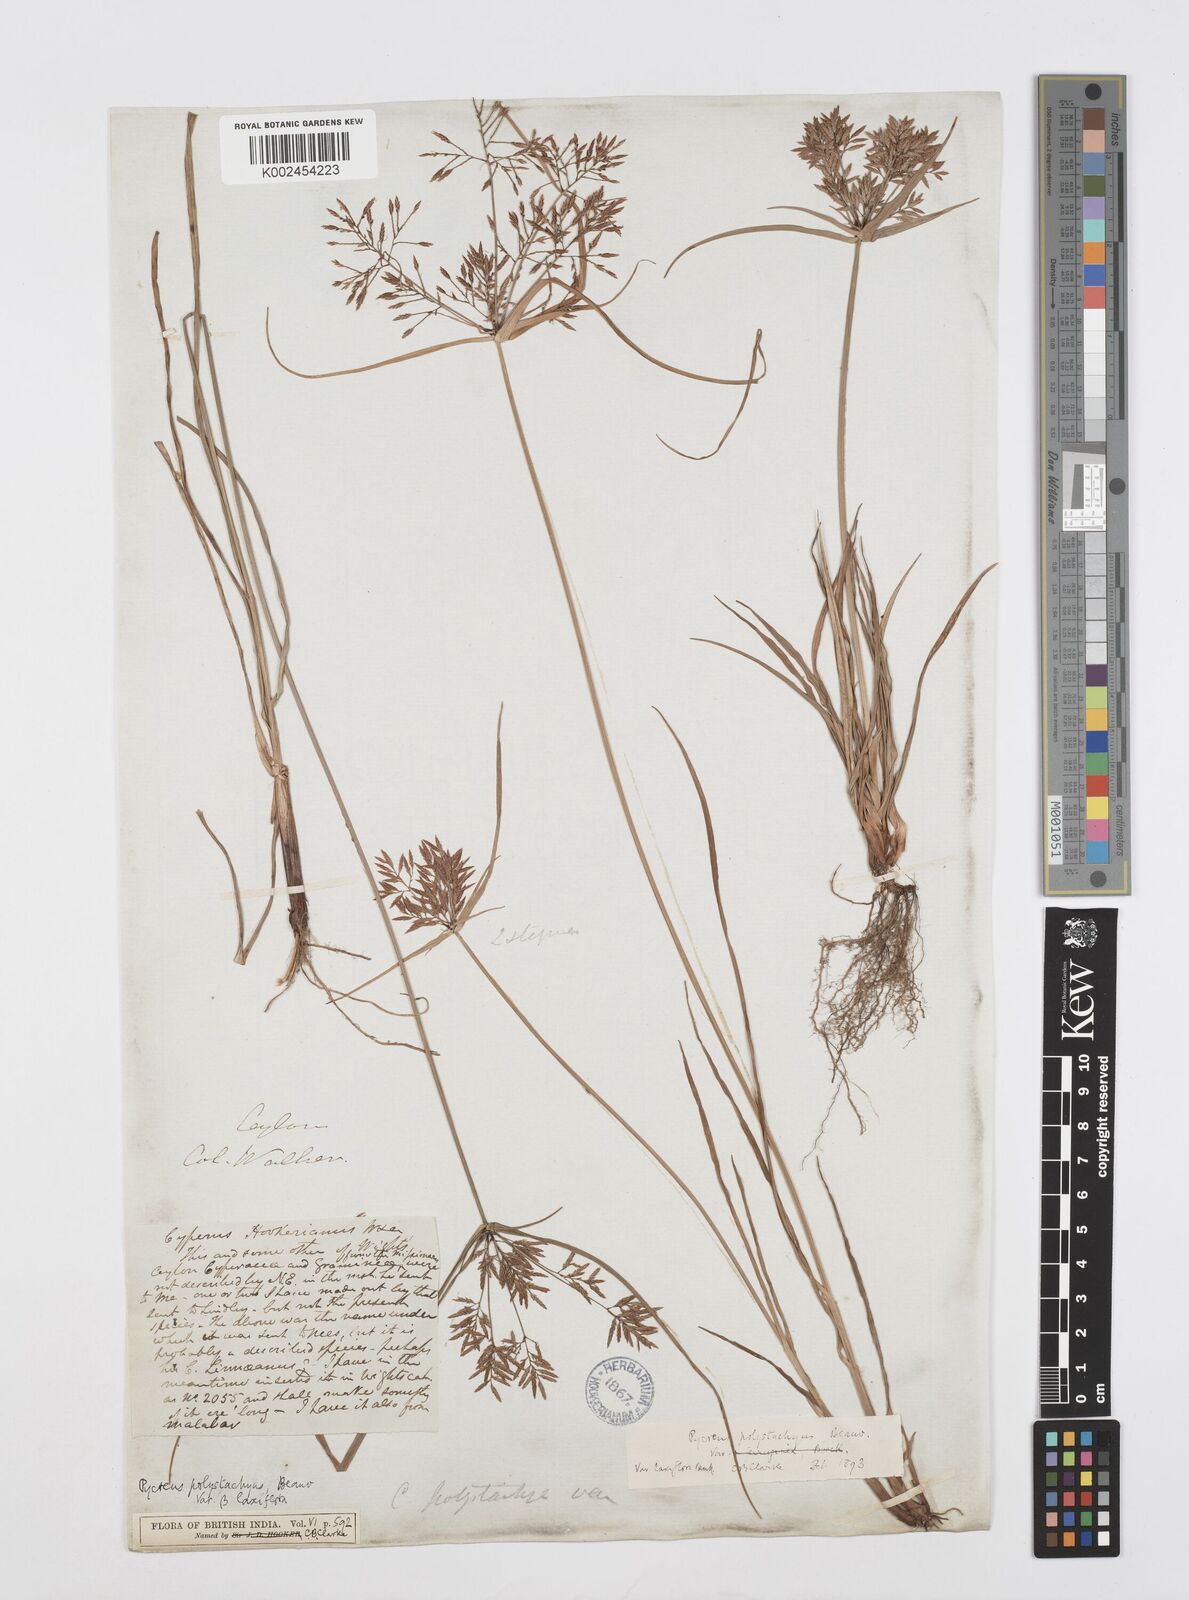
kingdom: Plantae
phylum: Tracheophyta
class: Liliopsida
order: Poales
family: Cyperaceae
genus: Cyperus
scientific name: Cyperus polystachyos
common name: Bunchy flat sedge
